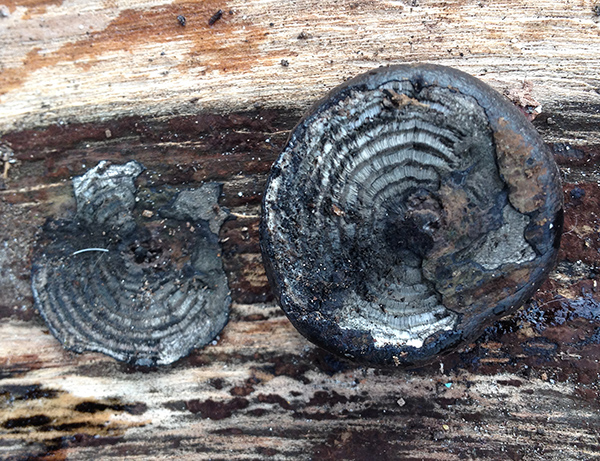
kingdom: Fungi
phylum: Ascomycota
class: Sordariomycetes
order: Xylariales
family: Hypoxylaceae
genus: Daldinia
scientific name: Daldinia concentrica
